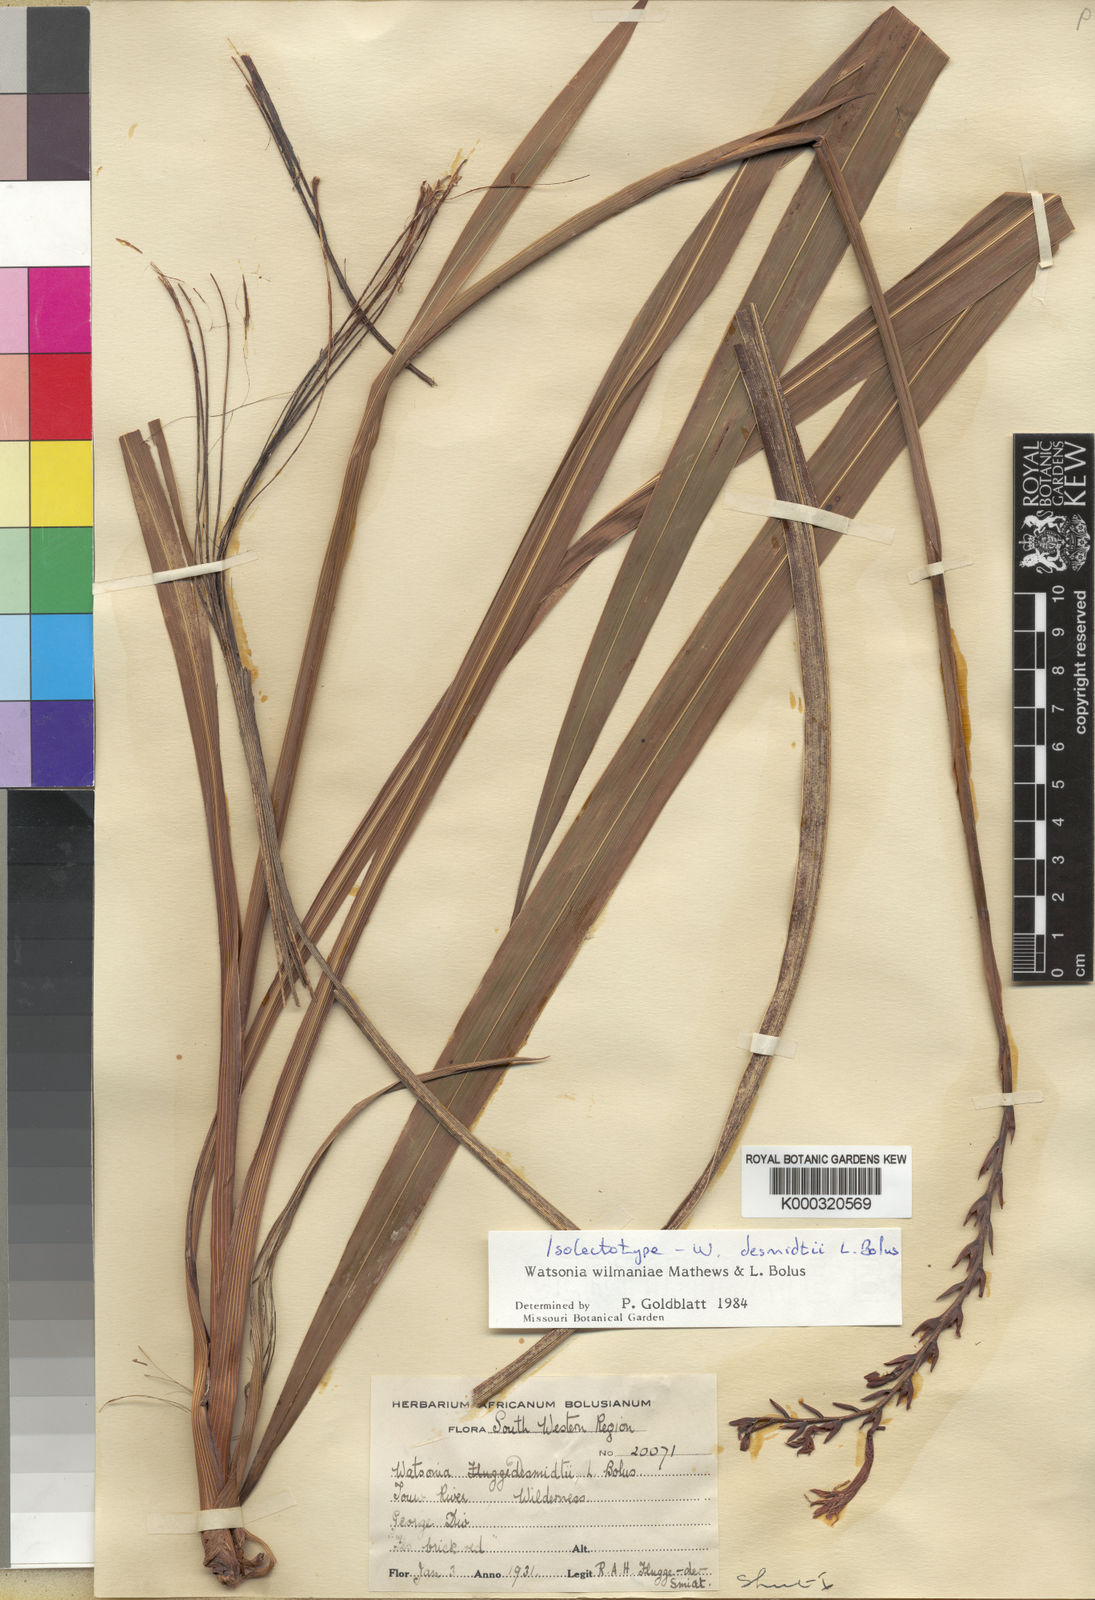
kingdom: Plantae
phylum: Tracheophyta
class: Liliopsida
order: Asparagales
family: Iridaceae
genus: Watsonia
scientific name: Watsonia wilmaniae
